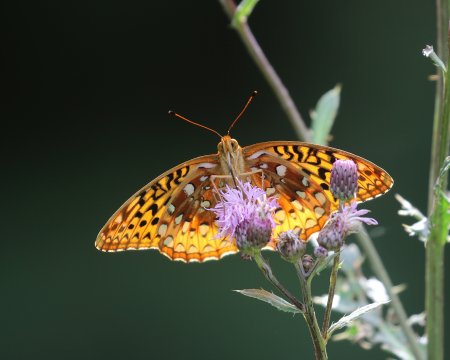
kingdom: Animalia
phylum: Arthropoda
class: Insecta
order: Lepidoptera
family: Nymphalidae
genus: Speyeria
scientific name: Speyeria cybele
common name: Great Spangled Fritillary
